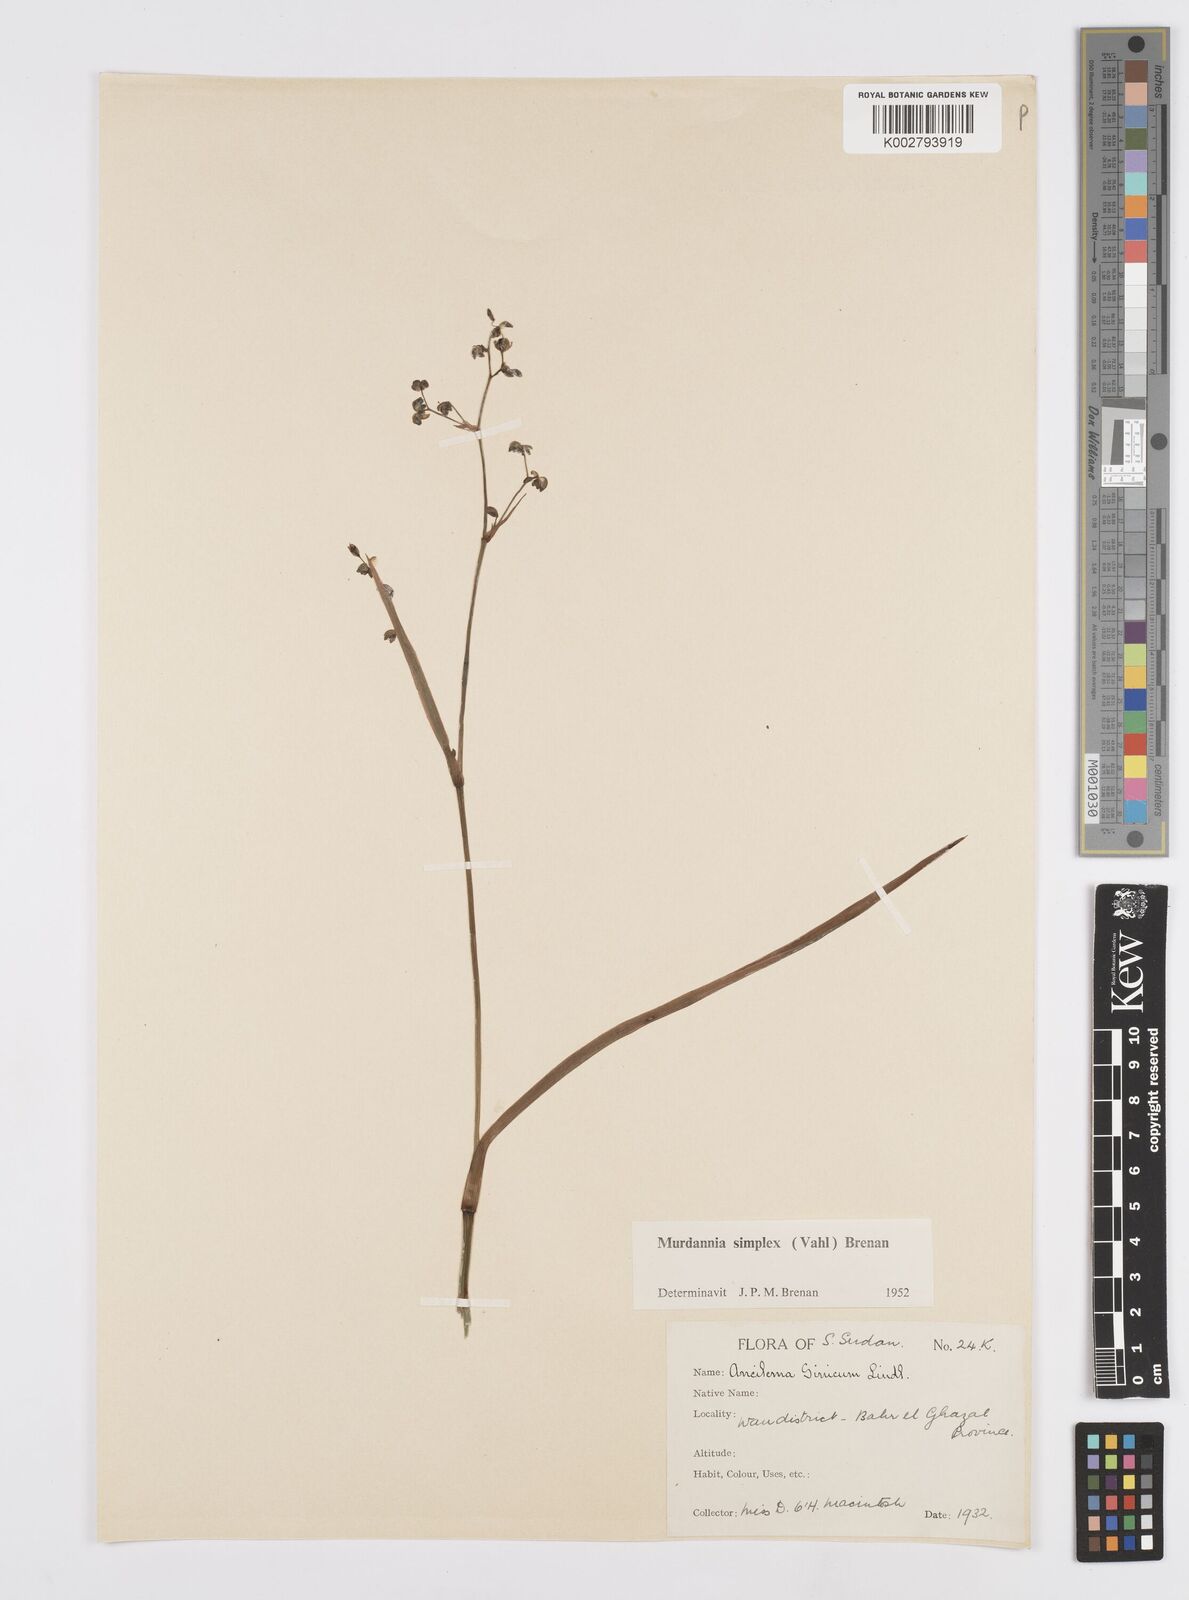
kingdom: Plantae
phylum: Tracheophyta
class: Liliopsida
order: Commelinales
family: Commelinaceae
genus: Murdannia
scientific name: Murdannia simplex
